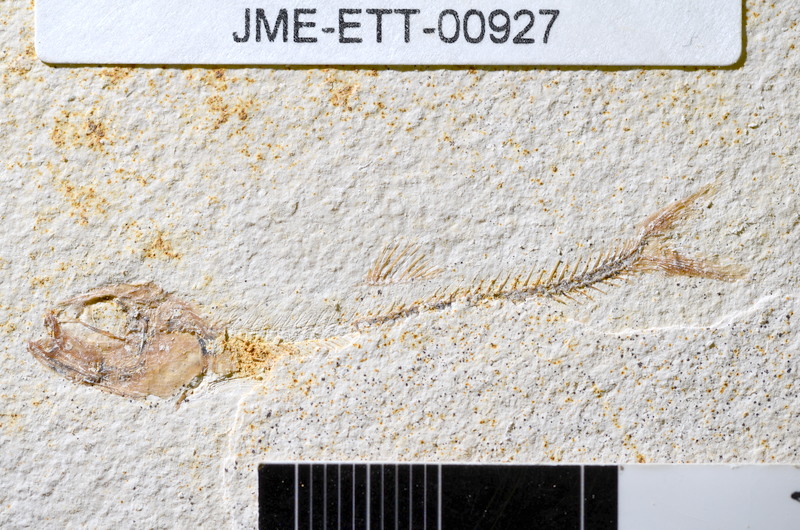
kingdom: Animalia
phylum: Chordata
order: Salmoniformes
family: Orthogonikleithridae
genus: Orthogonikleithrus
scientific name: Orthogonikleithrus hoelli
